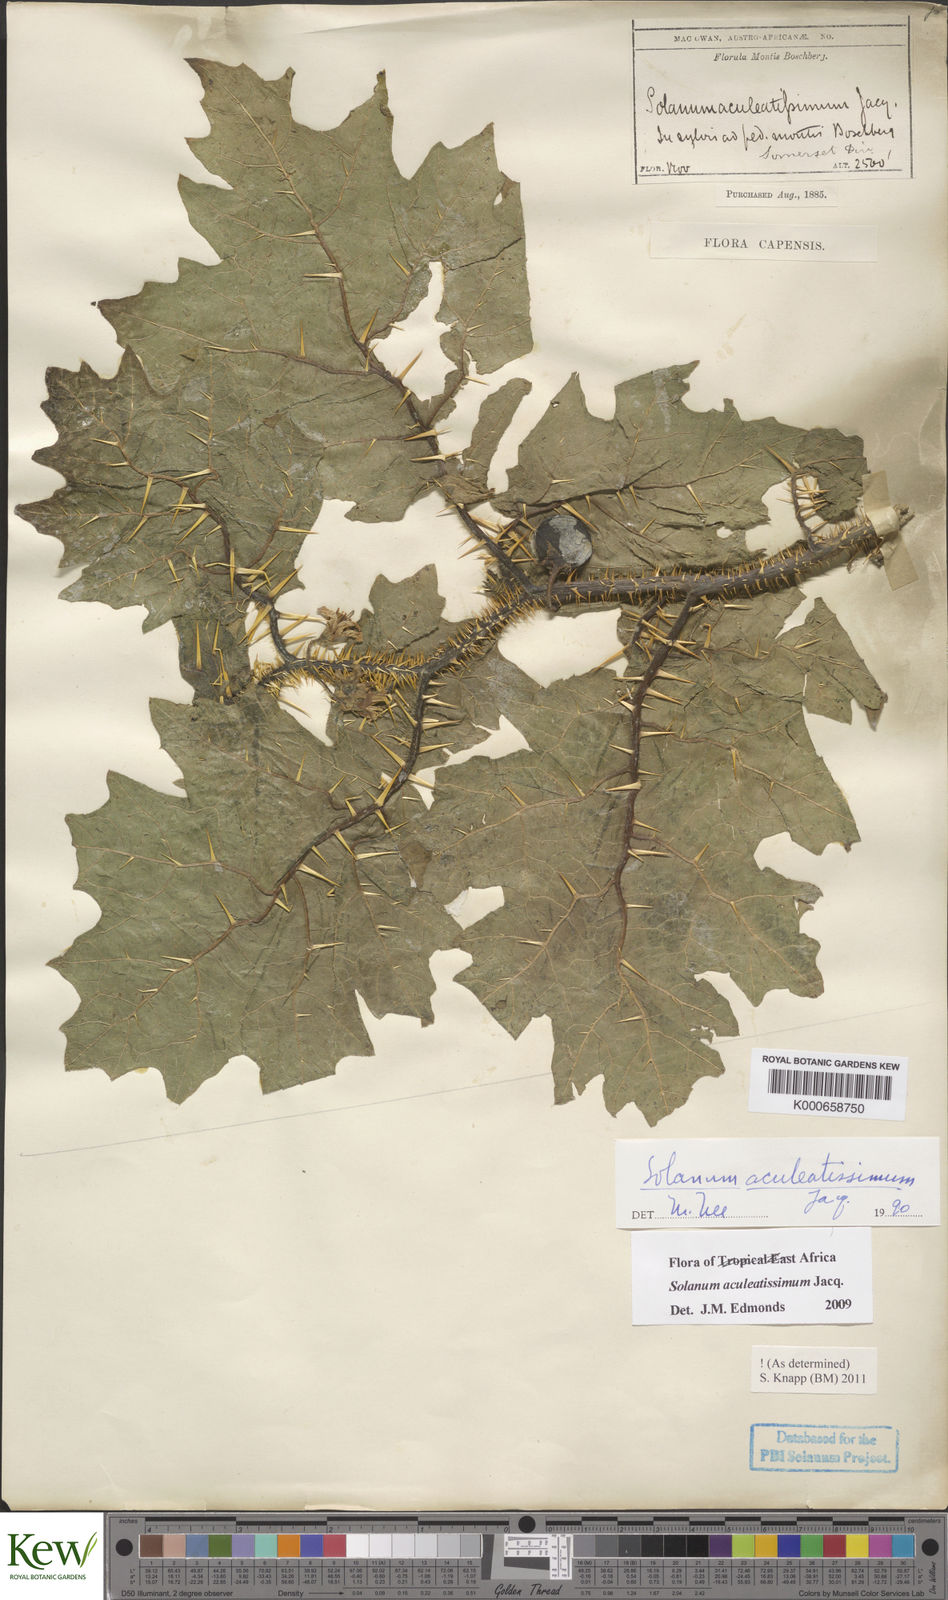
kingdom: Plantae
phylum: Tracheophyta
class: Magnoliopsida
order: Solanales
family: Solanaceae
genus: Solanum
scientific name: Solanum aculeatissimum
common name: Dutch eggplant
